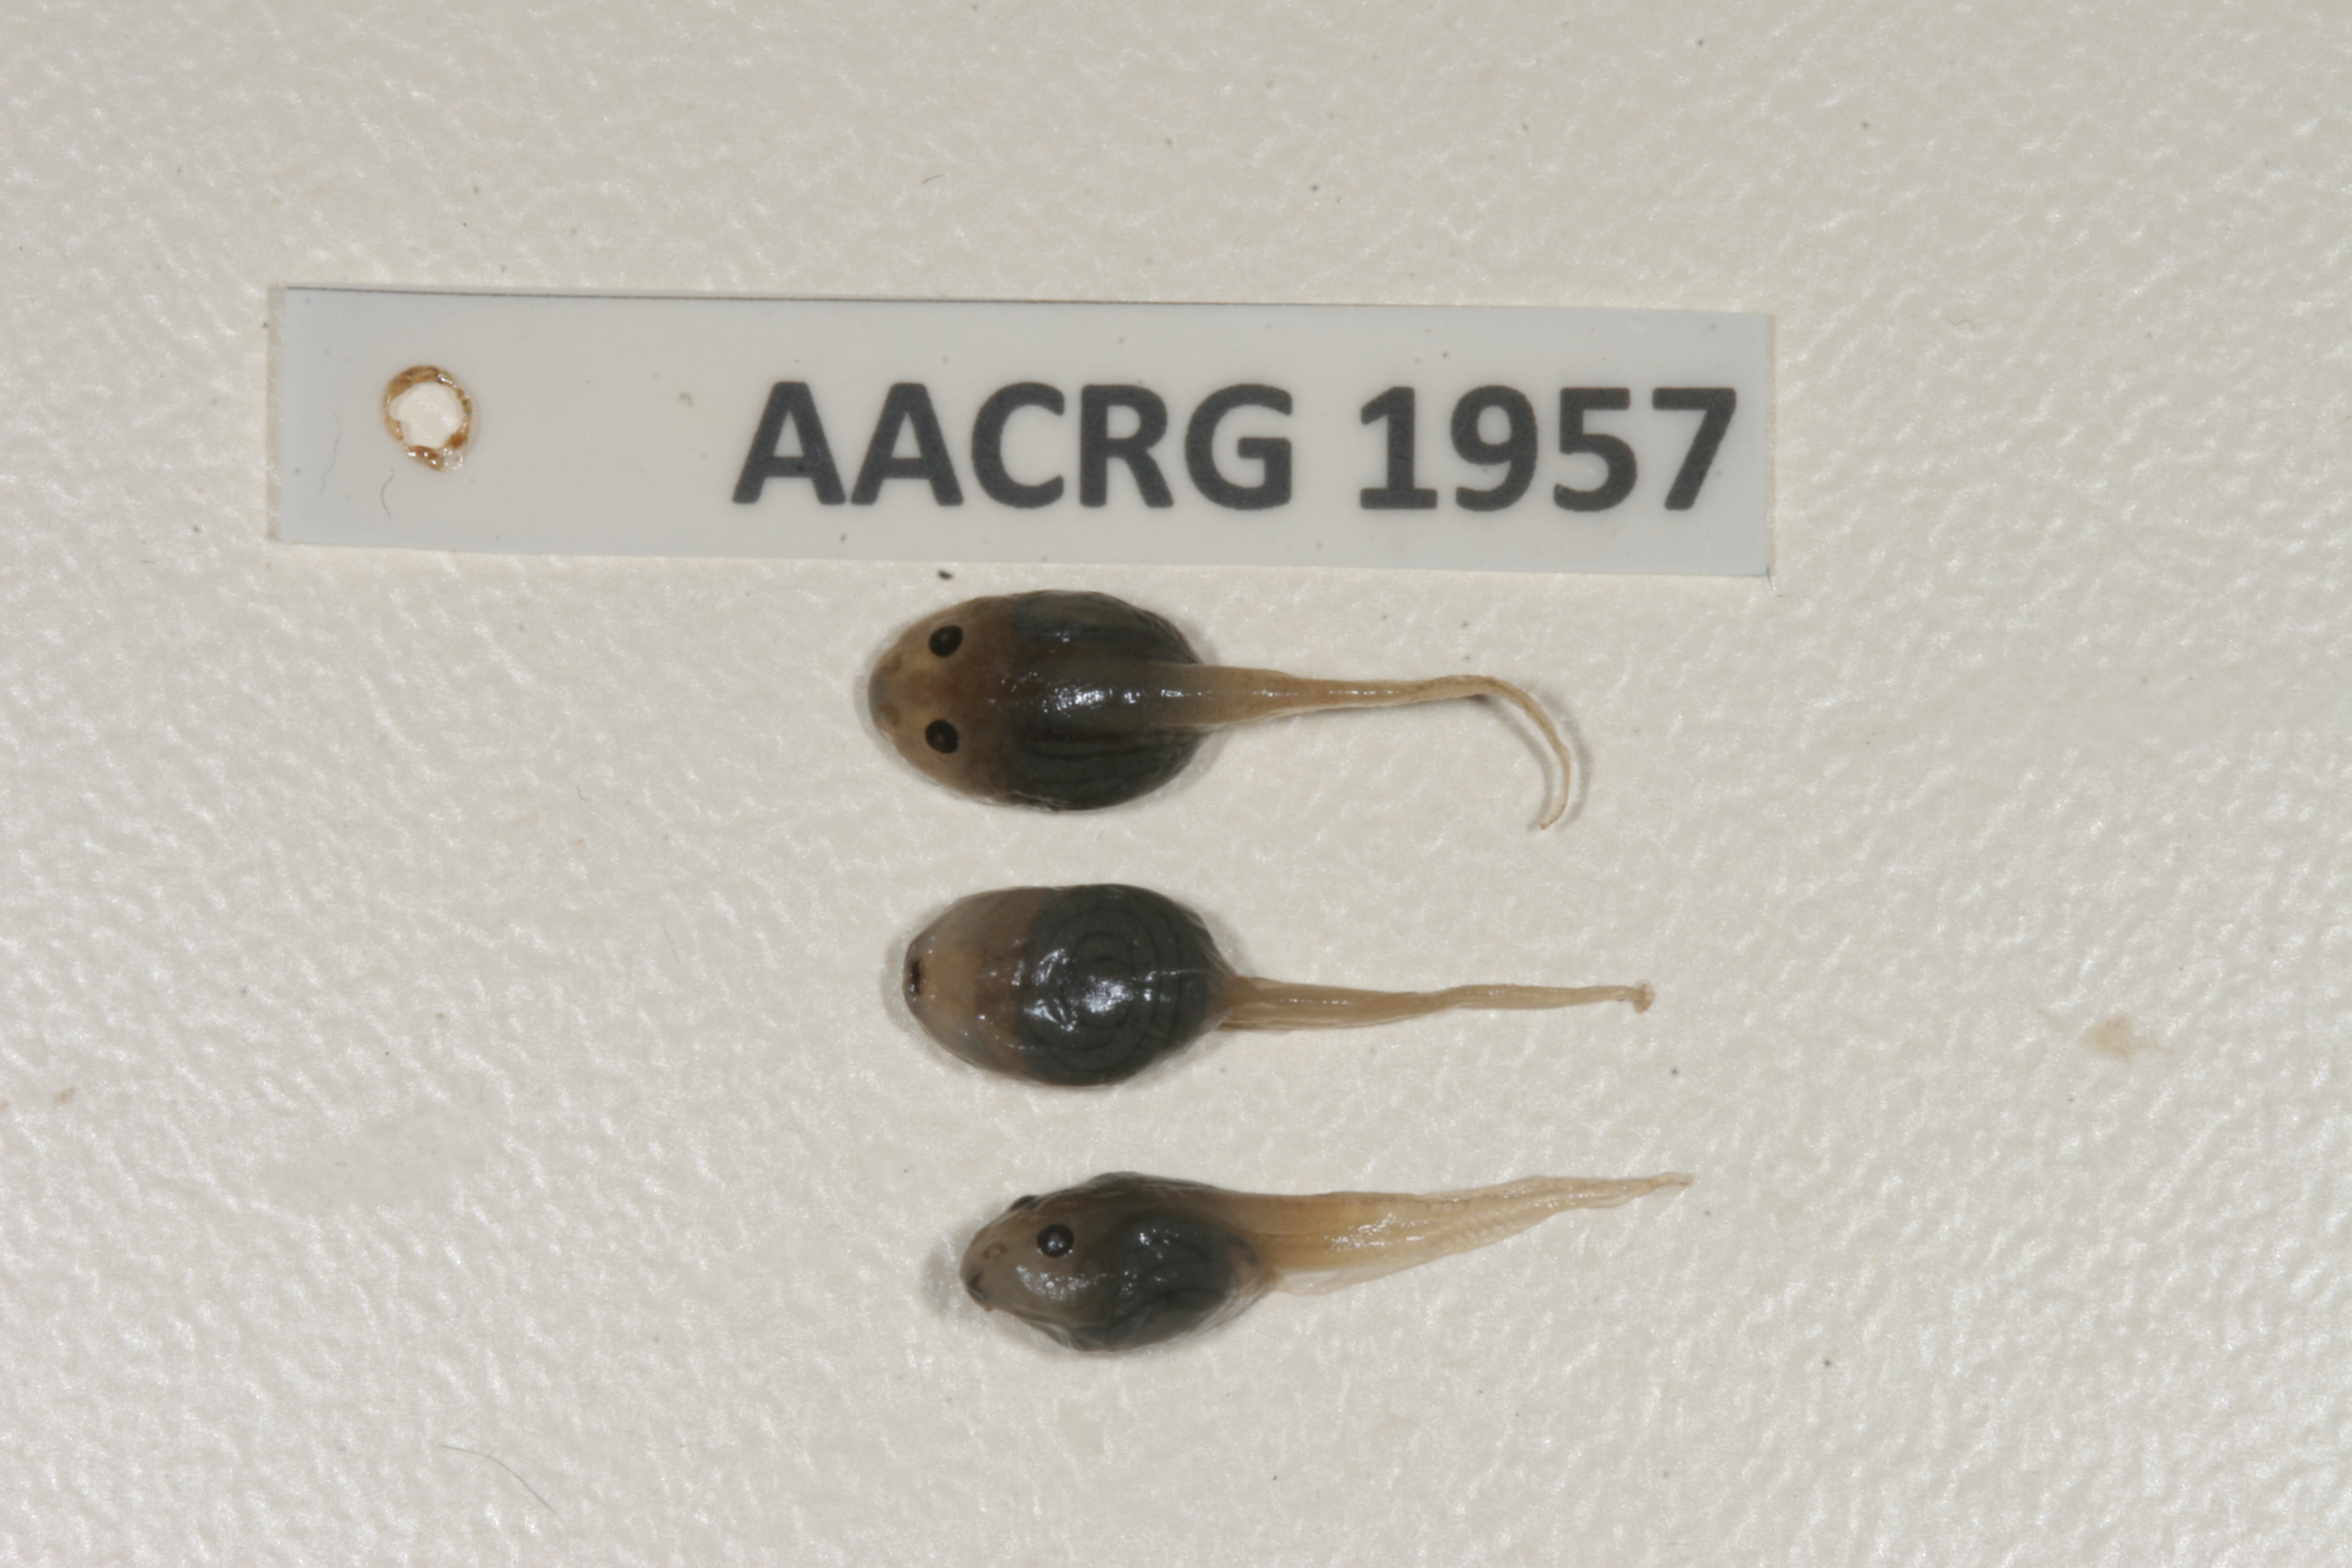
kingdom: Animalia
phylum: Chordata
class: Amphibia
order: Anura
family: Ptychadenidae
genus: Ptychadena
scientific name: Ptychadena mascareniensis
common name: Mascarene grass frog
